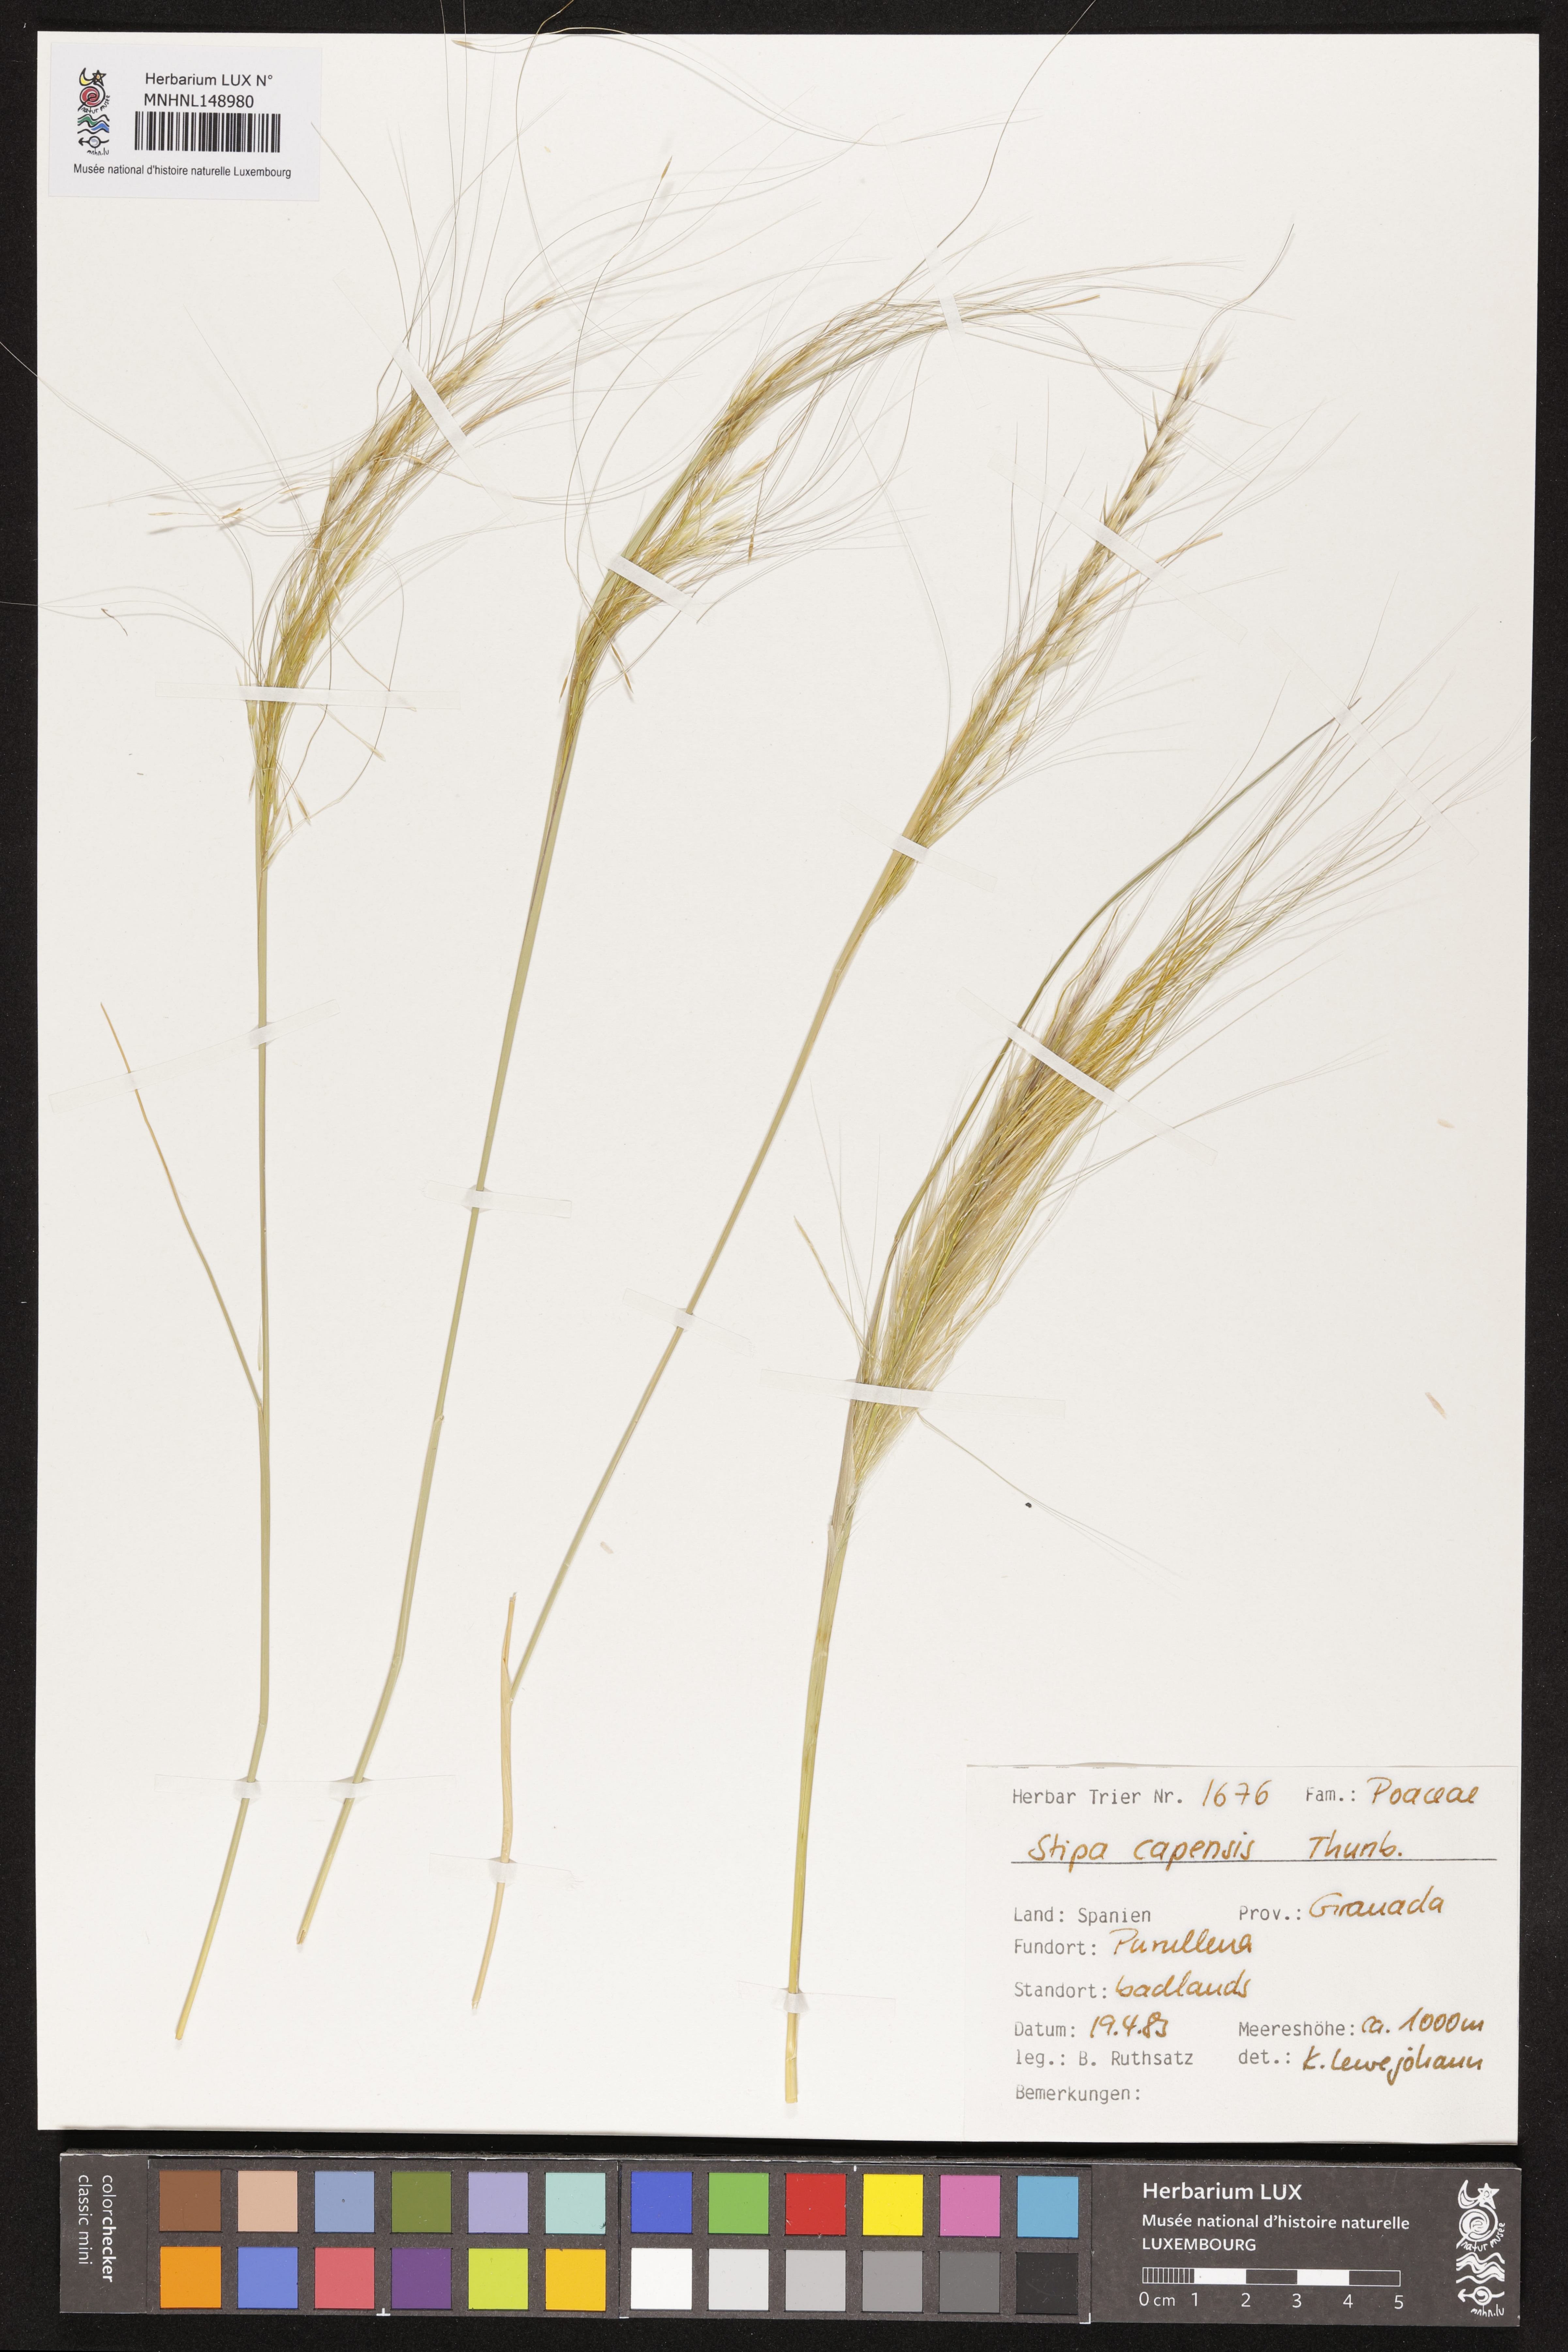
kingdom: Plantae
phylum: Tracheophyta
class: Liliopsida
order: Poales
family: Poaceae
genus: Stipellula
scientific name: Stipellula capensis
